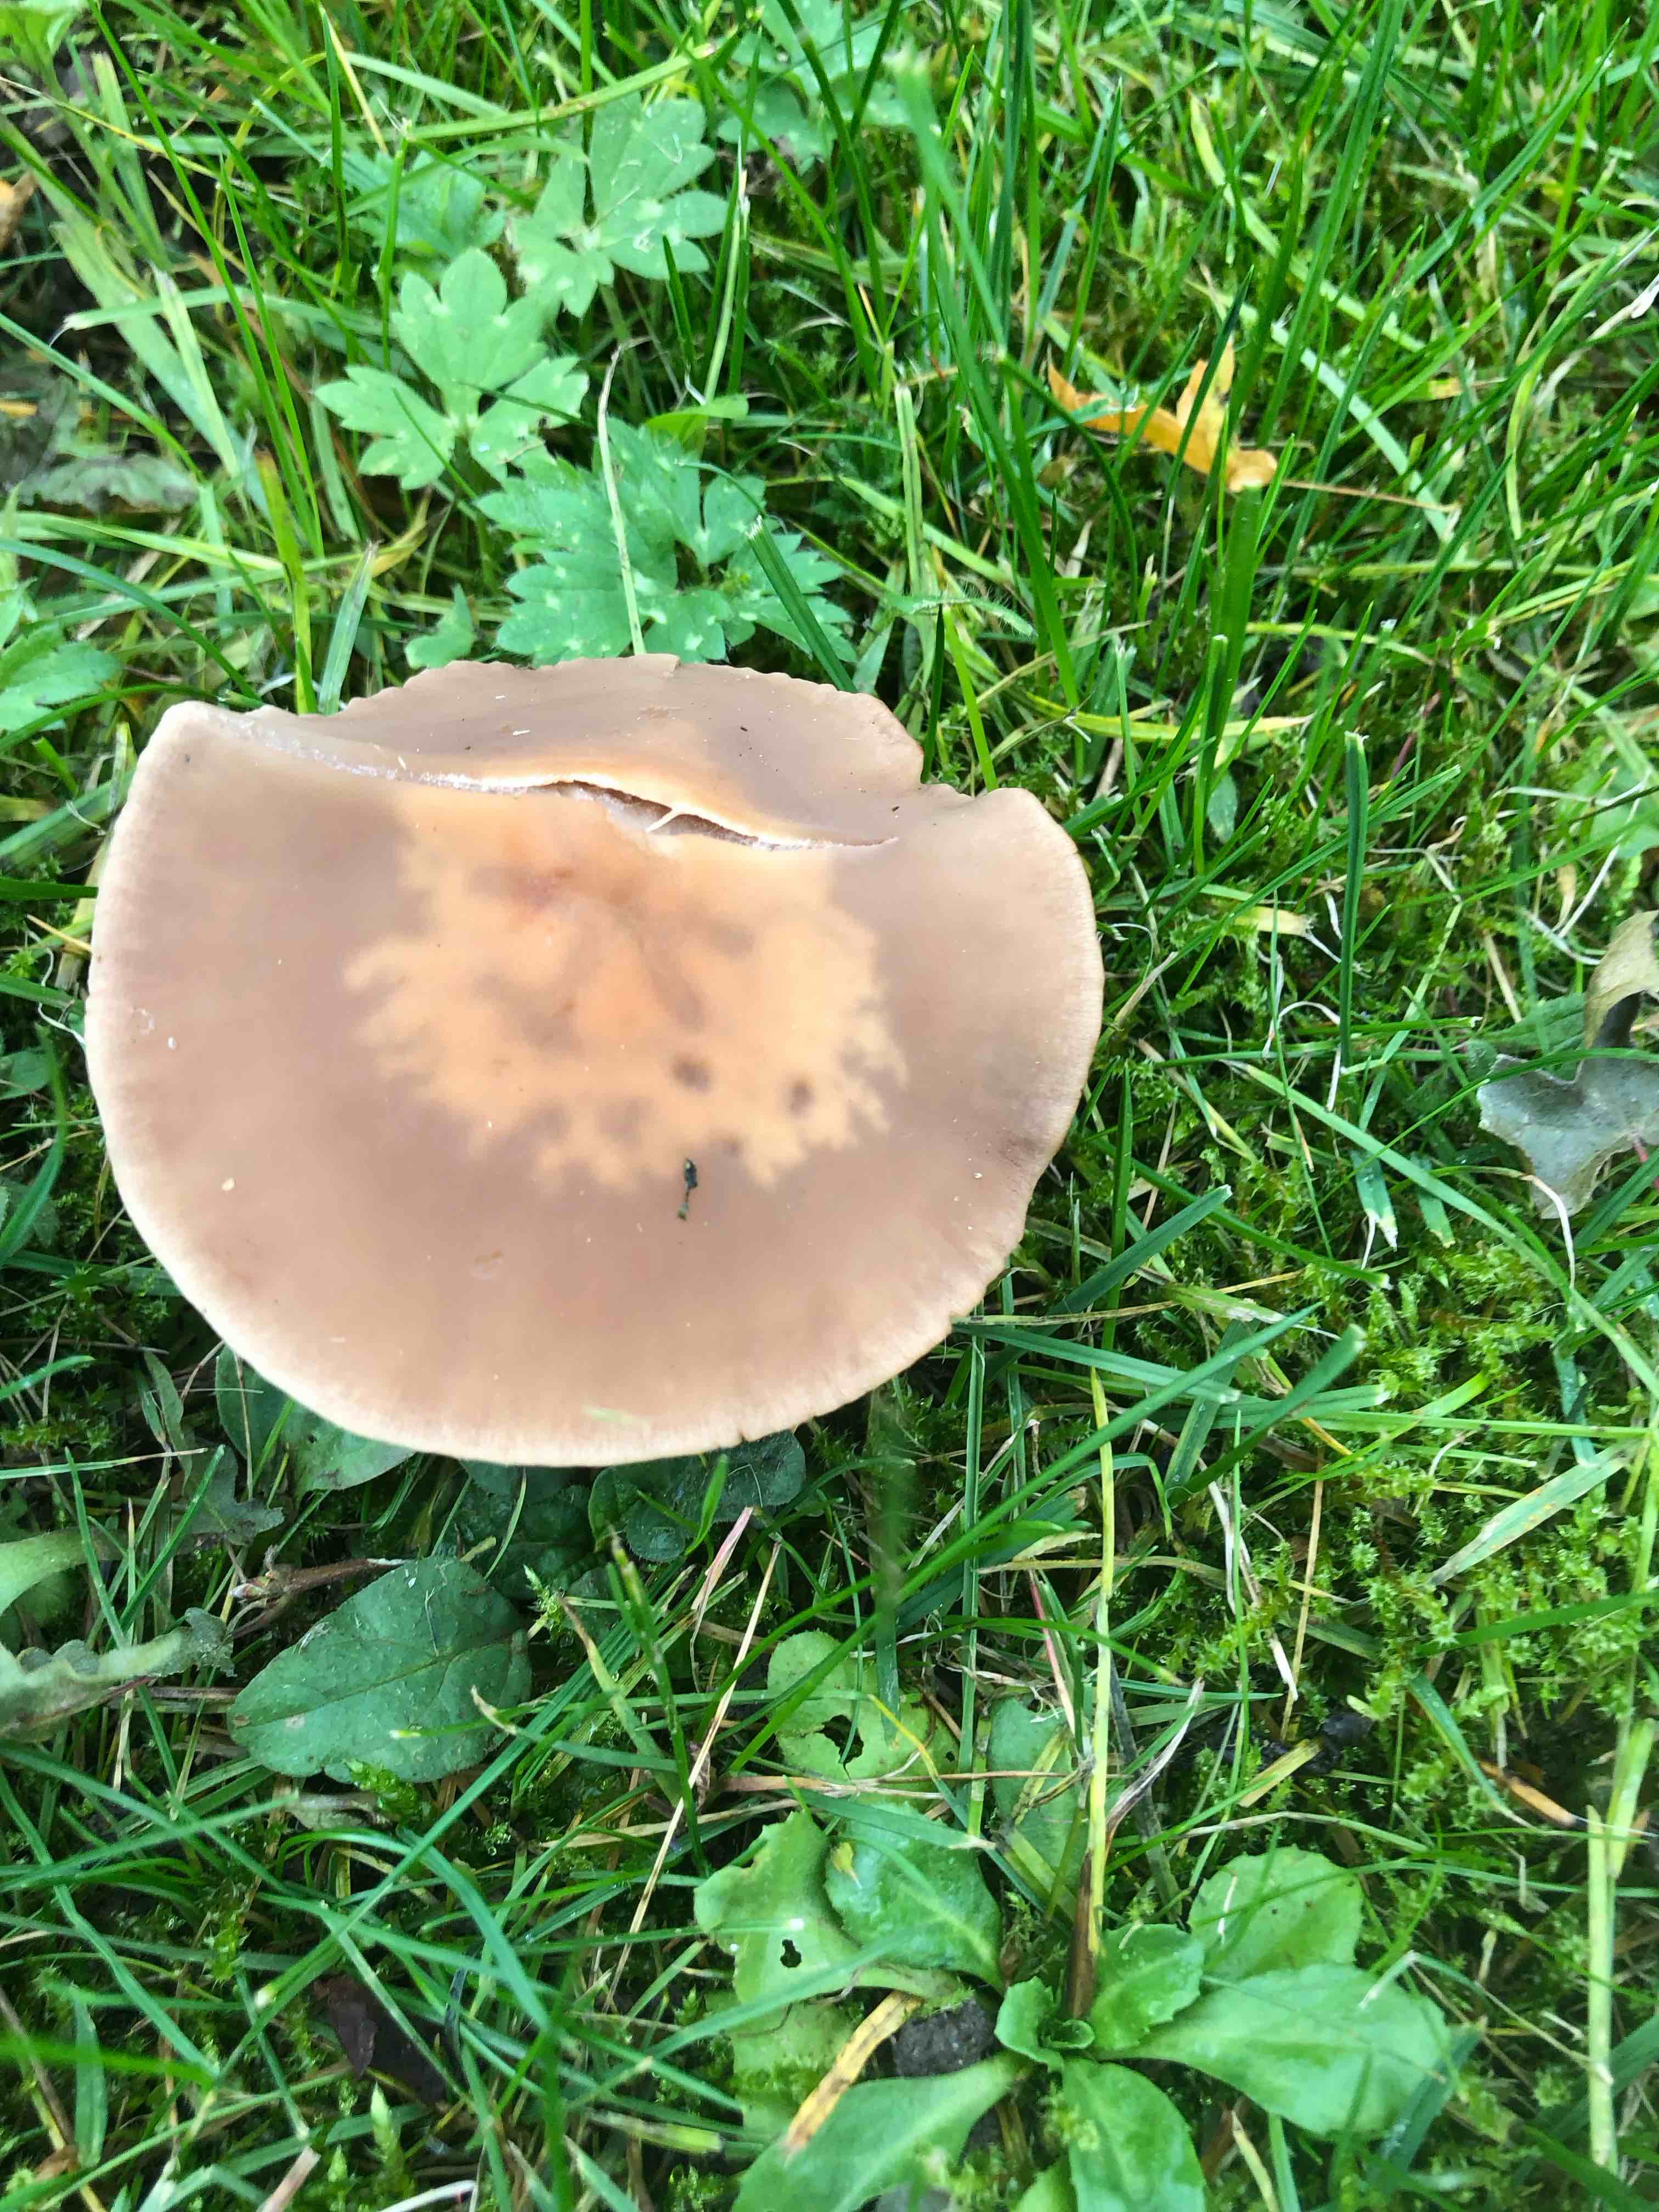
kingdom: Fungi
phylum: Basidiomycota
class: Agaricomycetes
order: Agaricales
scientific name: Agaricales
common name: champignonordenen
